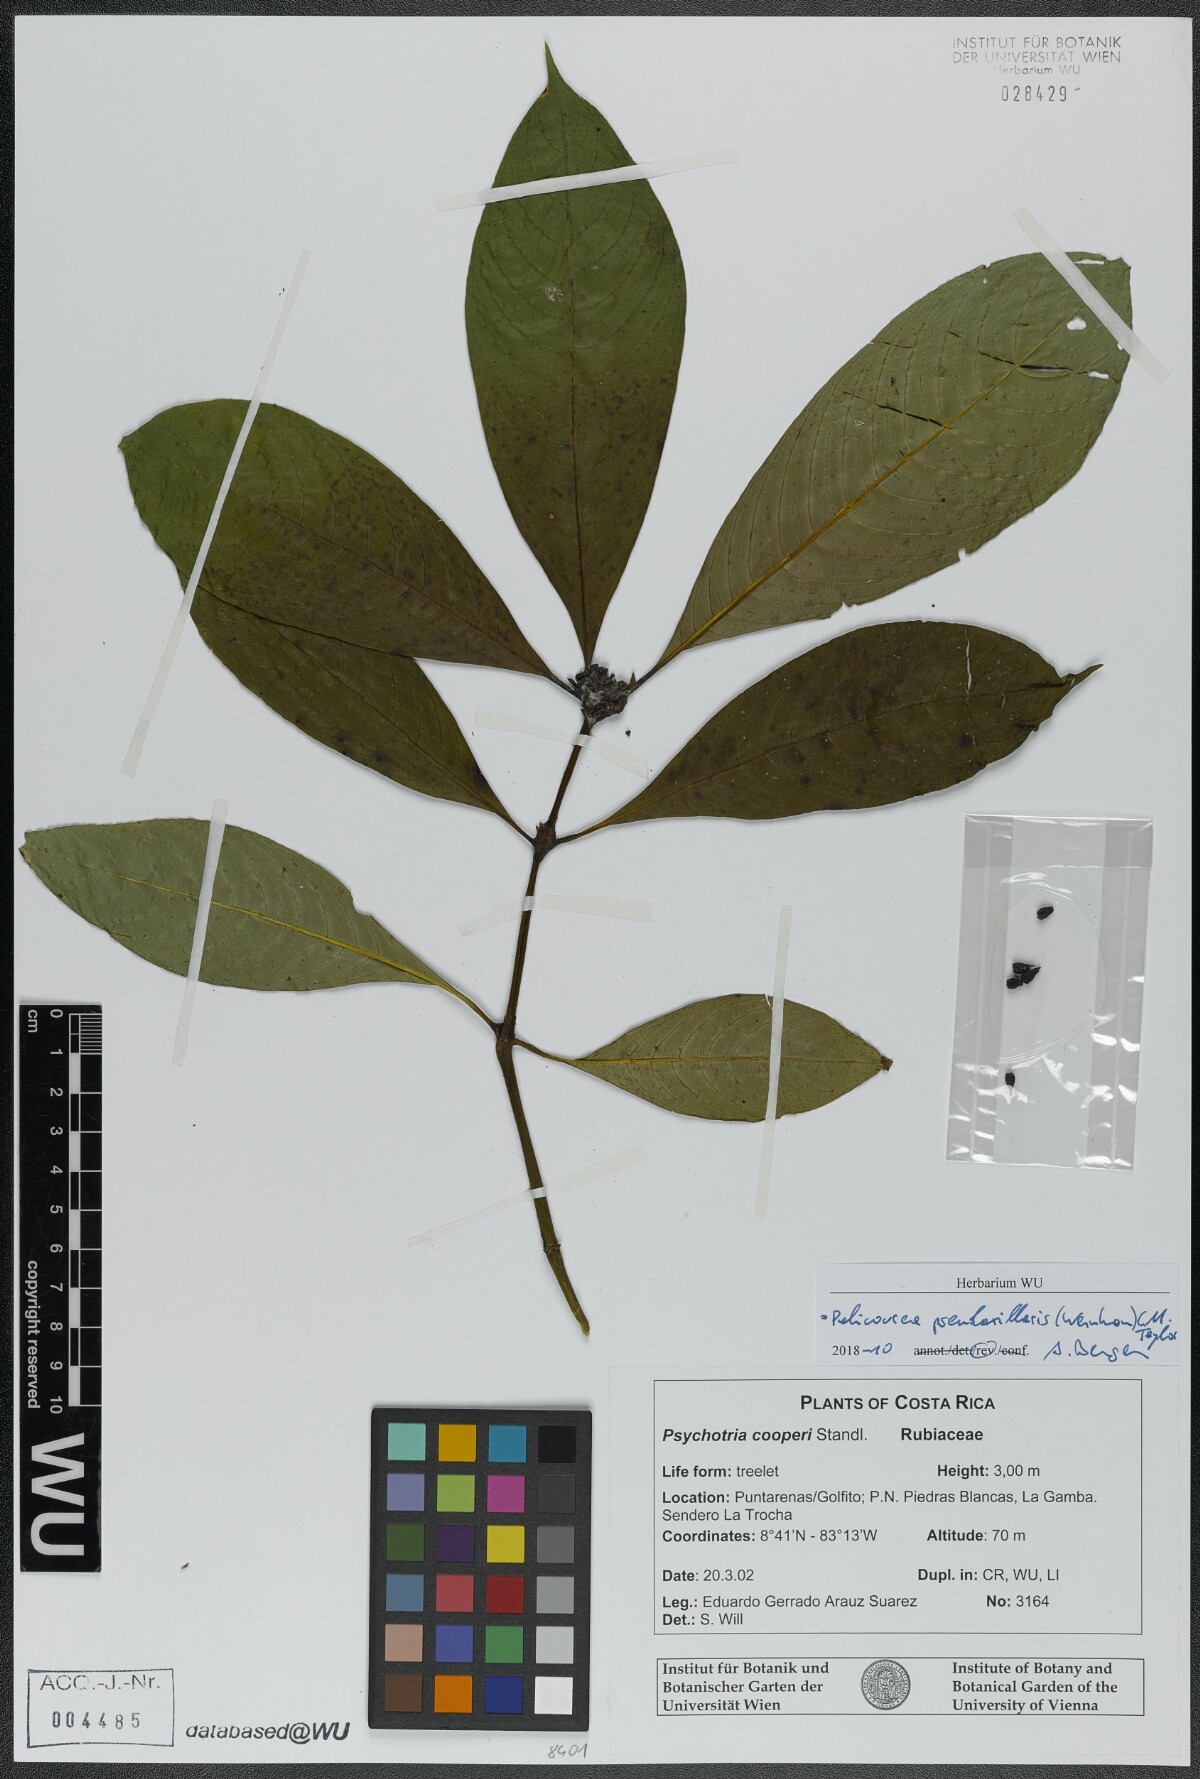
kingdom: Plantae
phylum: Tracheophyta
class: Magnoliopsida
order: Gentianales
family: Rubiaceae
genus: Palicourea
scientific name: Palicourea pseudaxillaris
